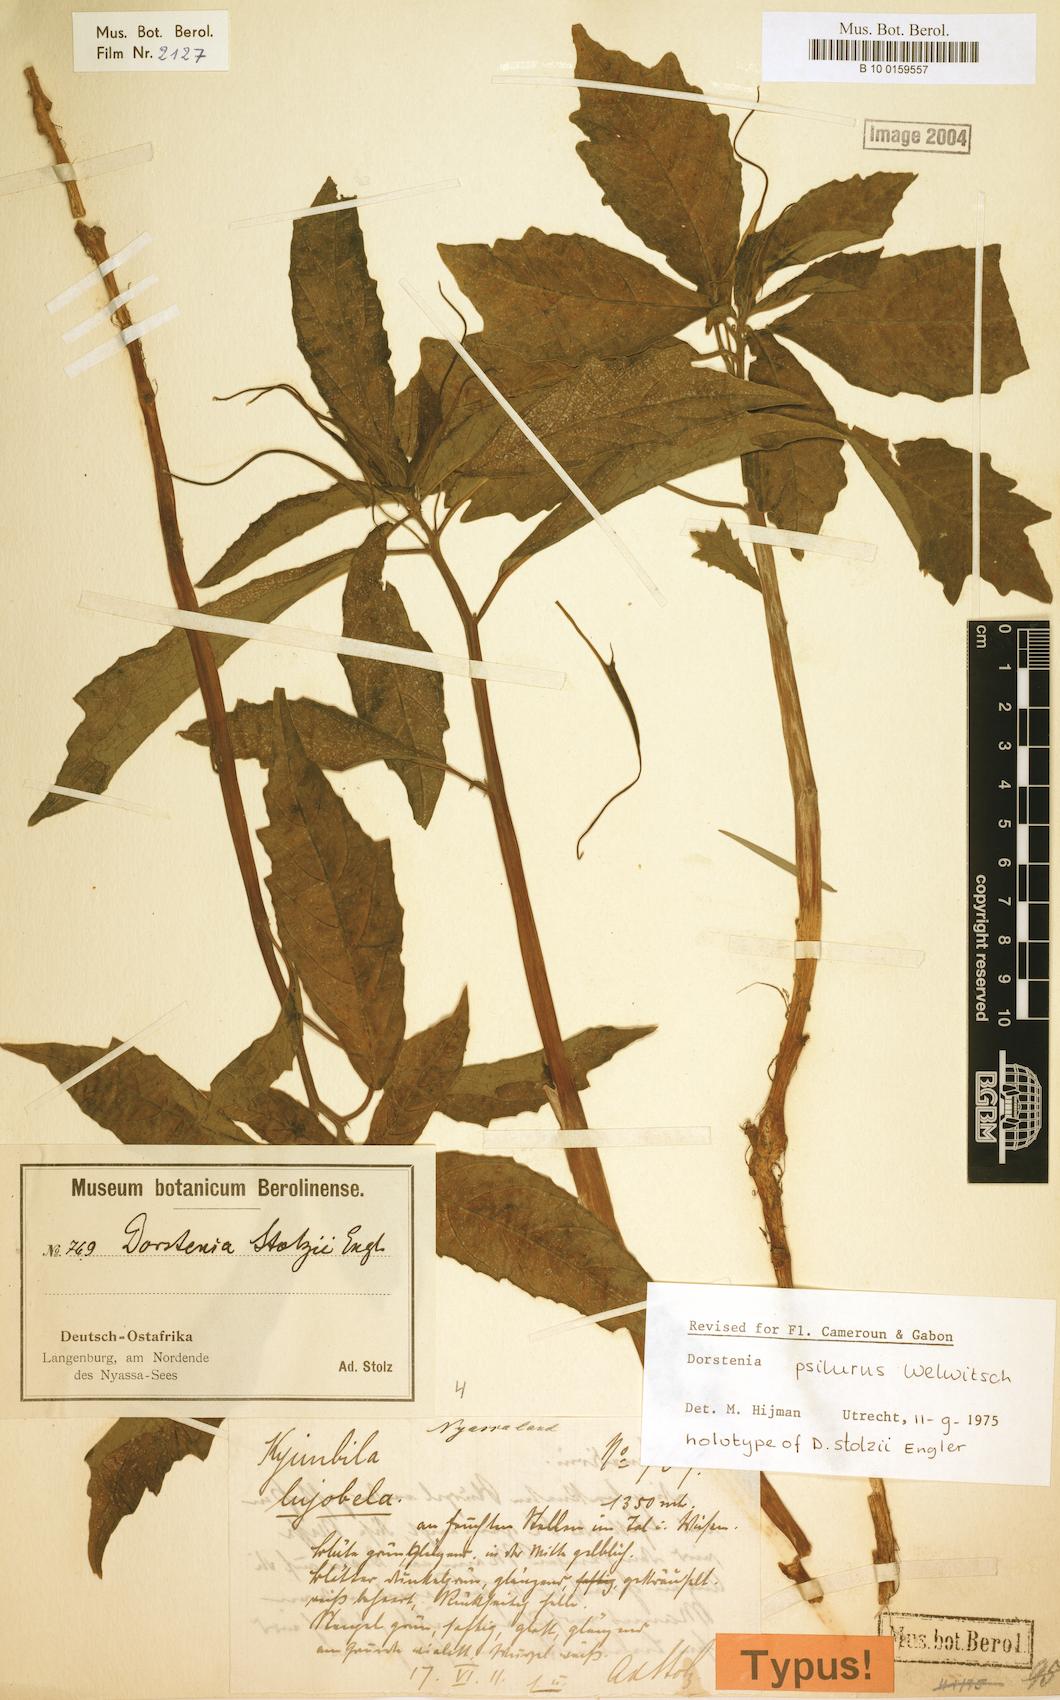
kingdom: Plantae
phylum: Tracheophyta
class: Magnoliopsida
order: Rosales
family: Moraceae
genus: Dorstenia
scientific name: Dorstenia psilurus
